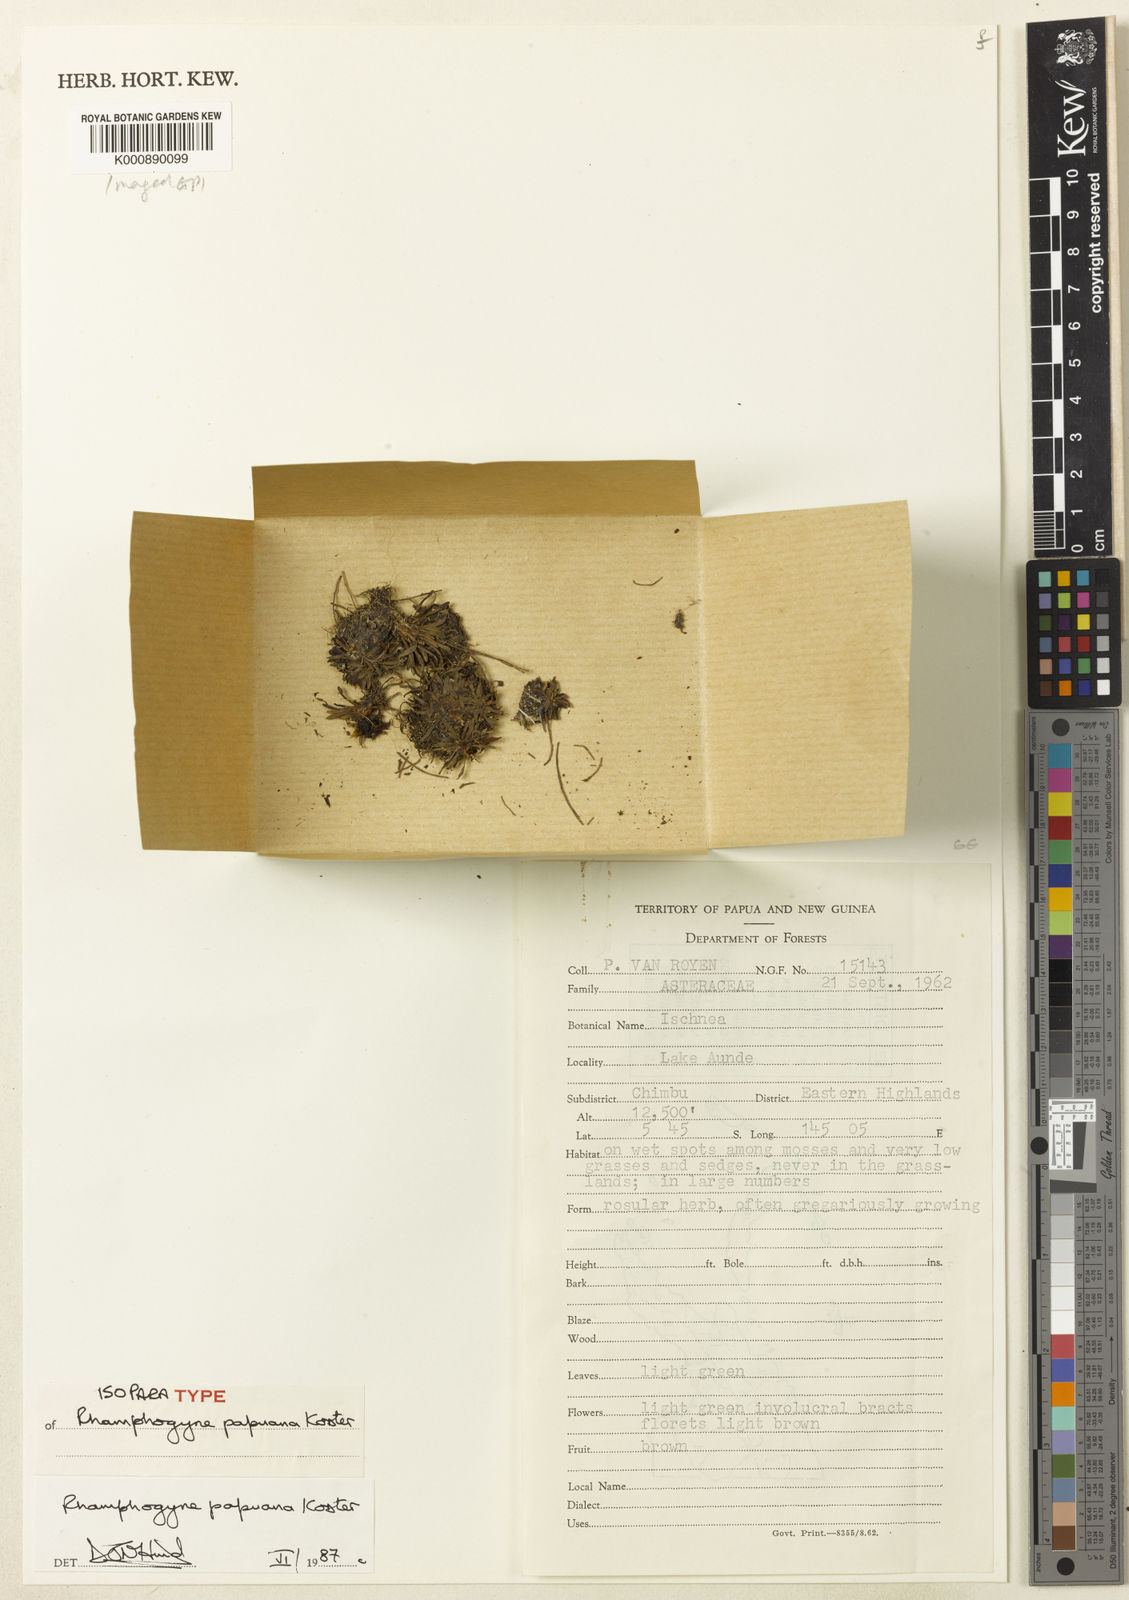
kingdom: Plantae
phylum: Tracheophyta
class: Magnoliopsida
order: Asterales
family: Asteraceae
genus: Lagenocypsela
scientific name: Lagenocypsela papuana
